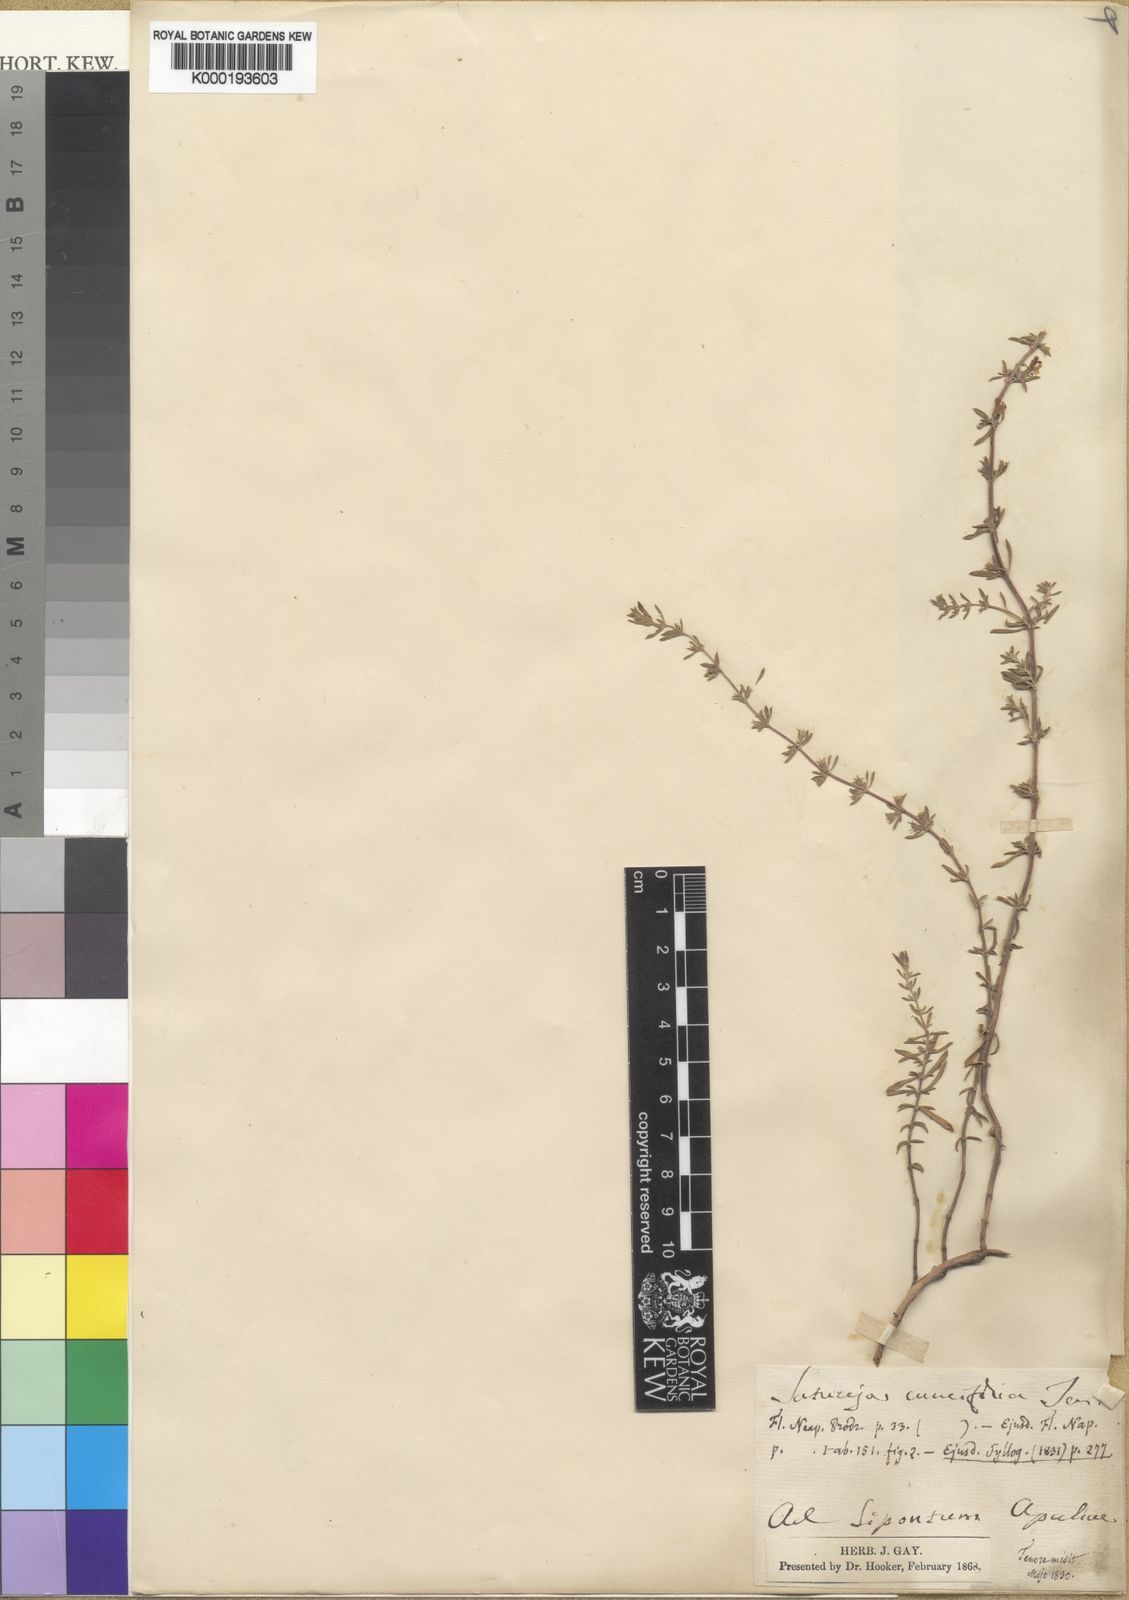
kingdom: Plantae
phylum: Tracheophyta
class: Magnoliopsida
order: Lamiales
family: Lamiaceae
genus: Satureja
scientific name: Satureja cuneifolia
